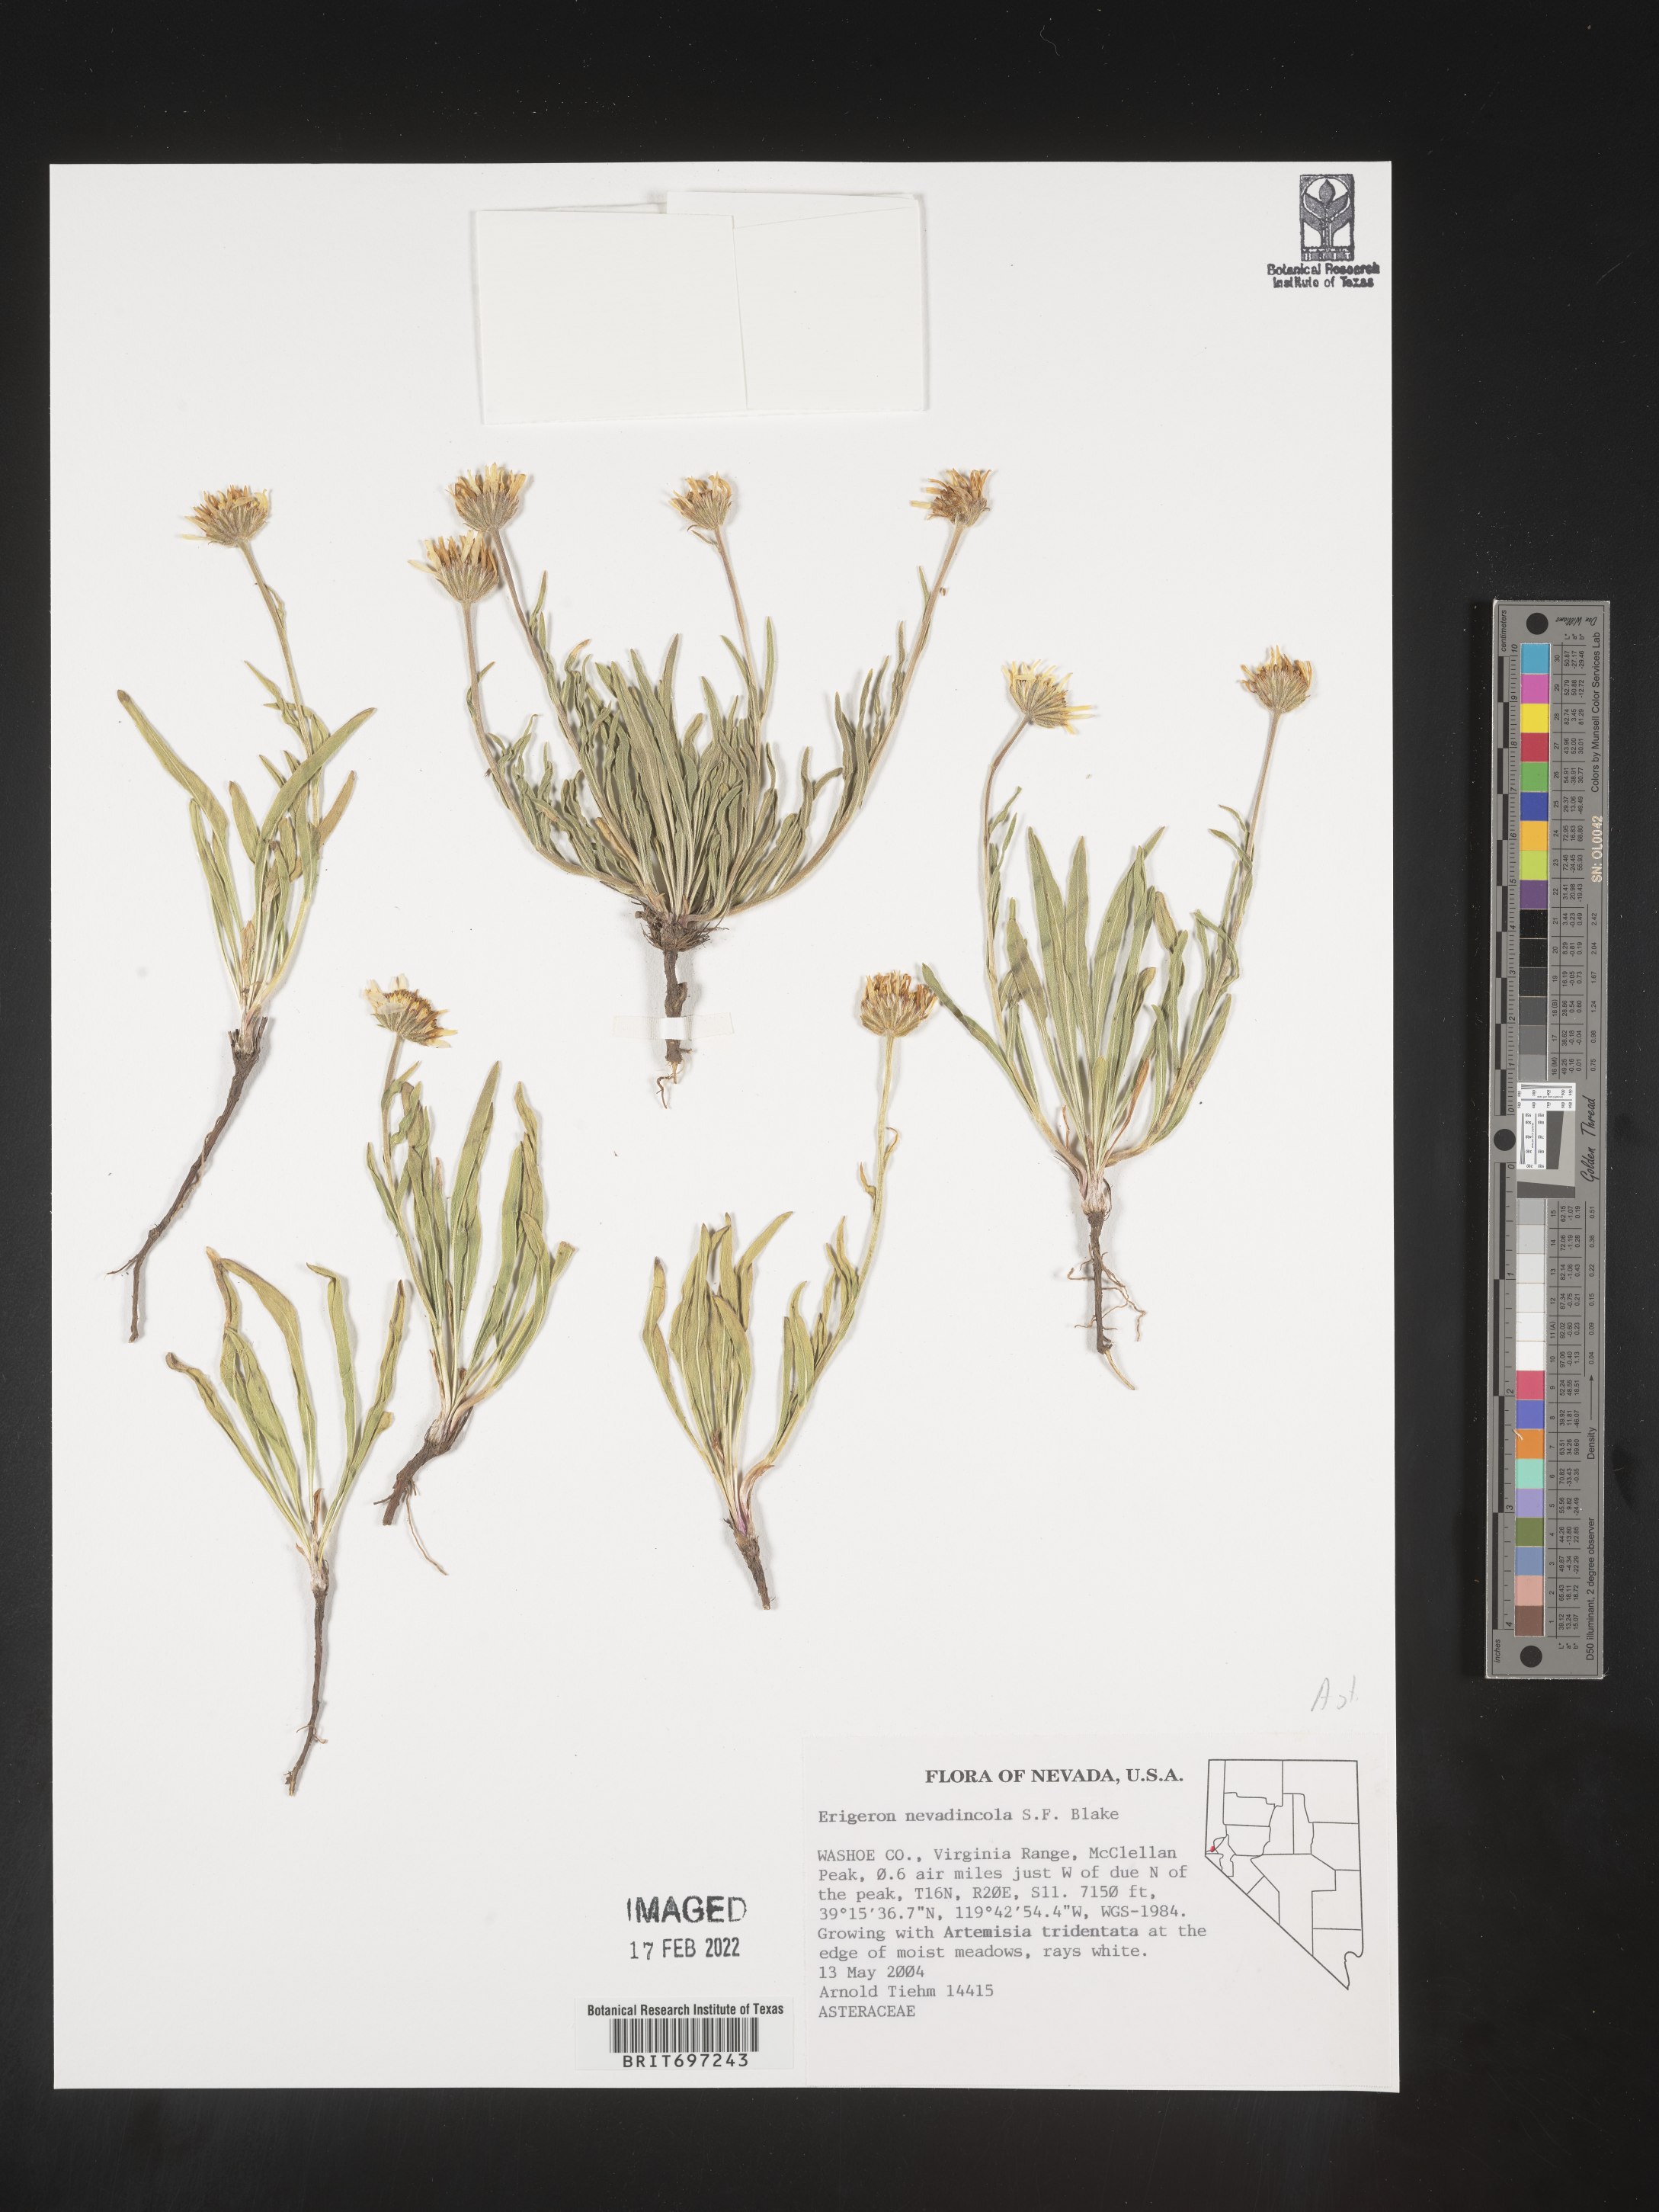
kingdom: Plantae
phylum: Tracheophyta
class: Magnoliopsida
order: Asterales
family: Asteraceae
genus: Erigeron
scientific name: Erigeron eatonii
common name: Eaton's fleabane
